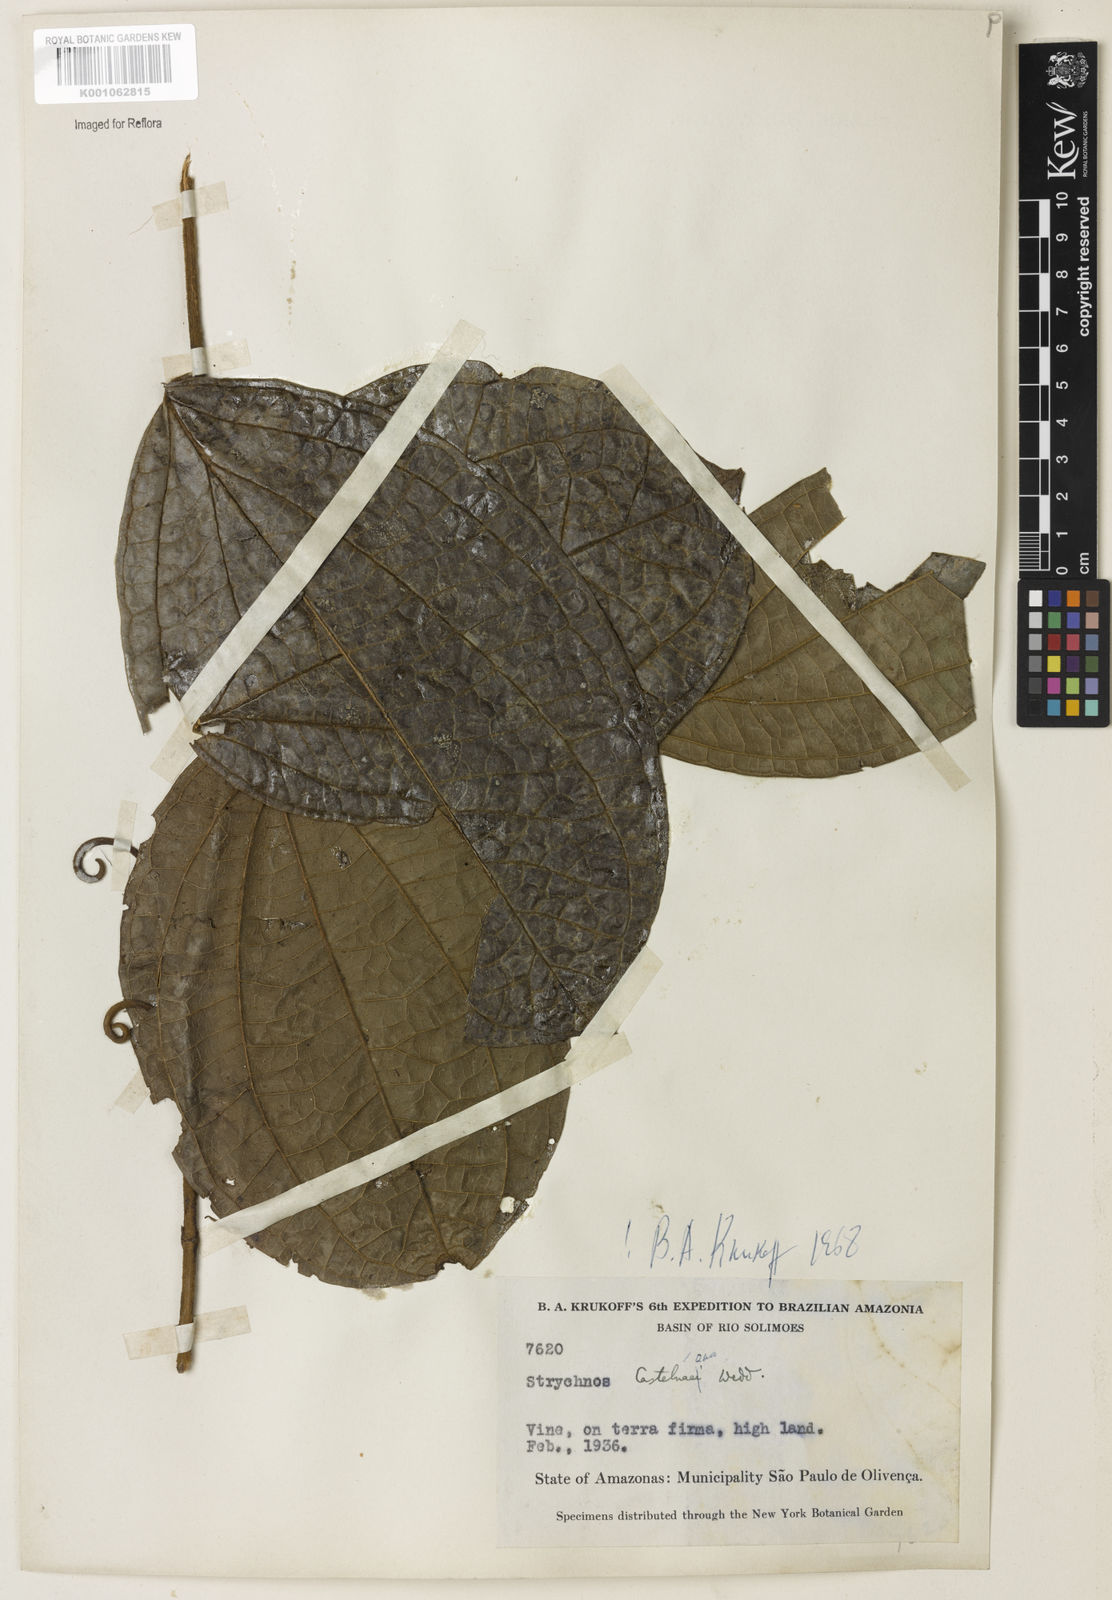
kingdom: Plantae
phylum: Tracheophyta
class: Magnoliopsida
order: Gentianales
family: Loganiaceae
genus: Strychnos
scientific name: Strychnos
